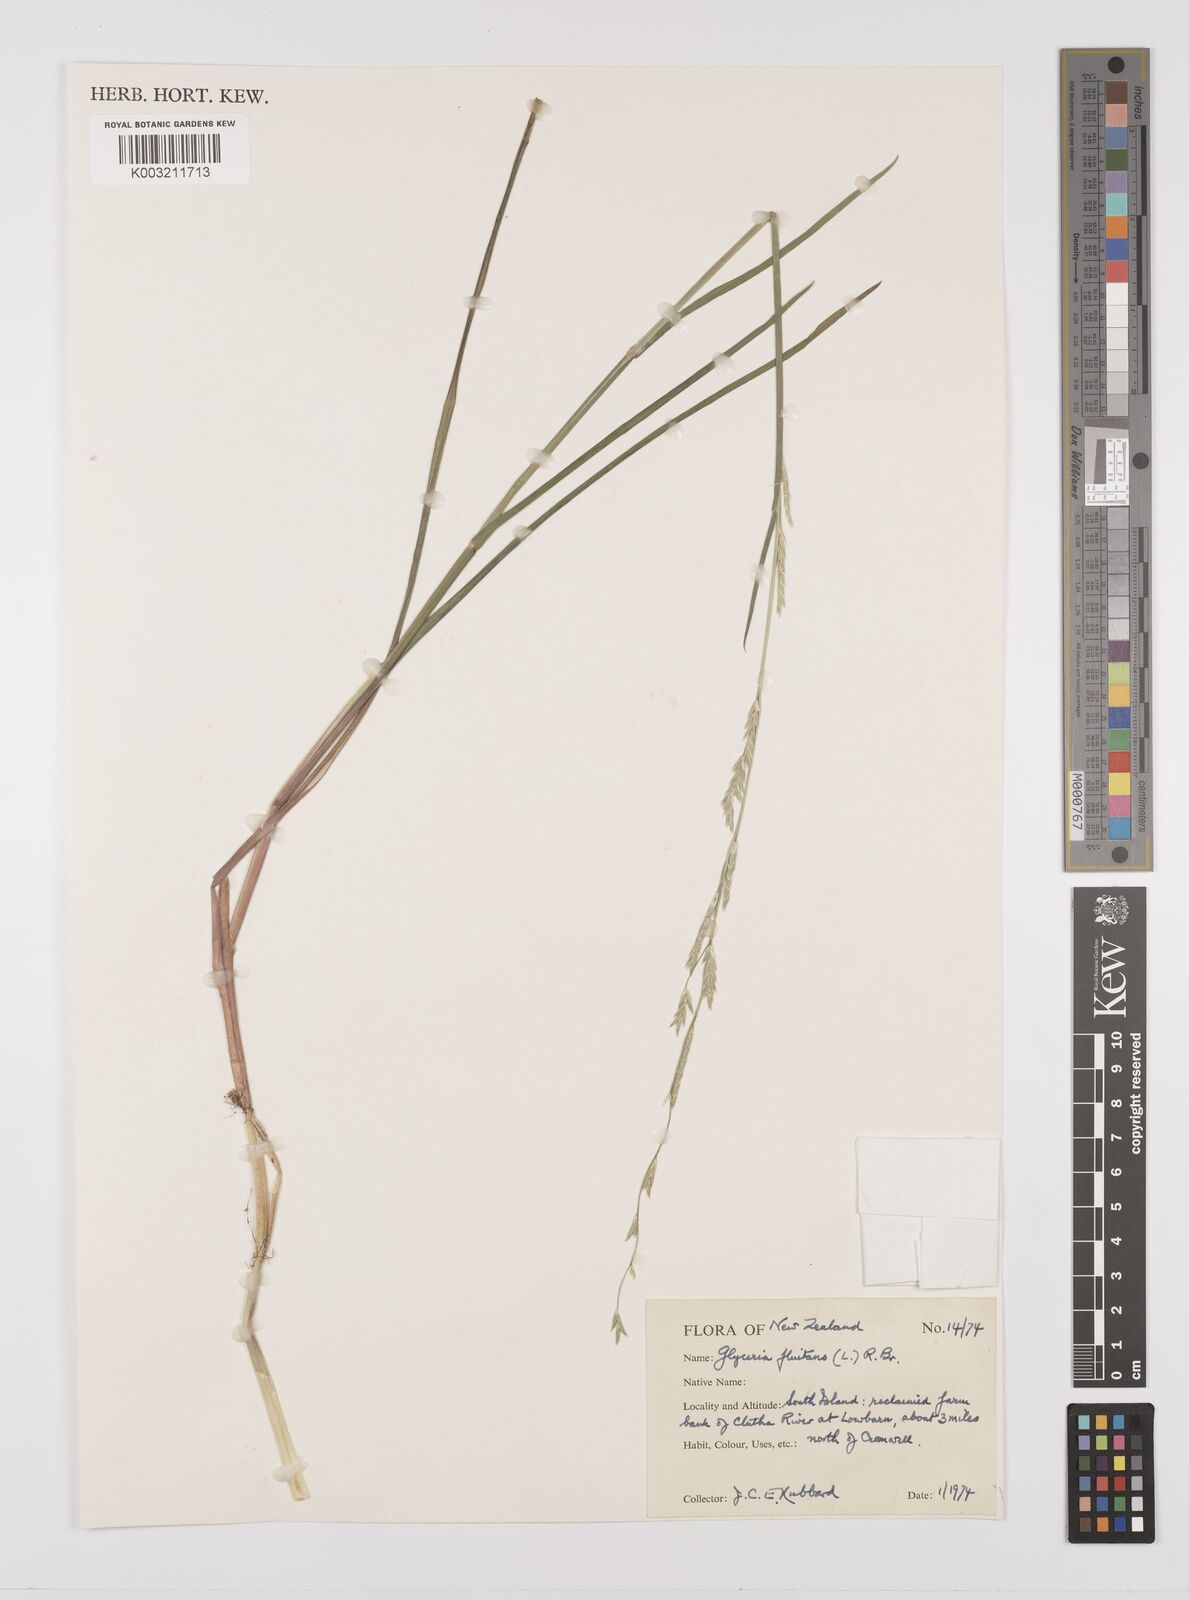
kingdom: Plantae
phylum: Tracheophyta
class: Liliopsida
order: Poales
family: Poaceae
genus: Glyceria
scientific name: Glyceria fluitans
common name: Floating sweet-grass
